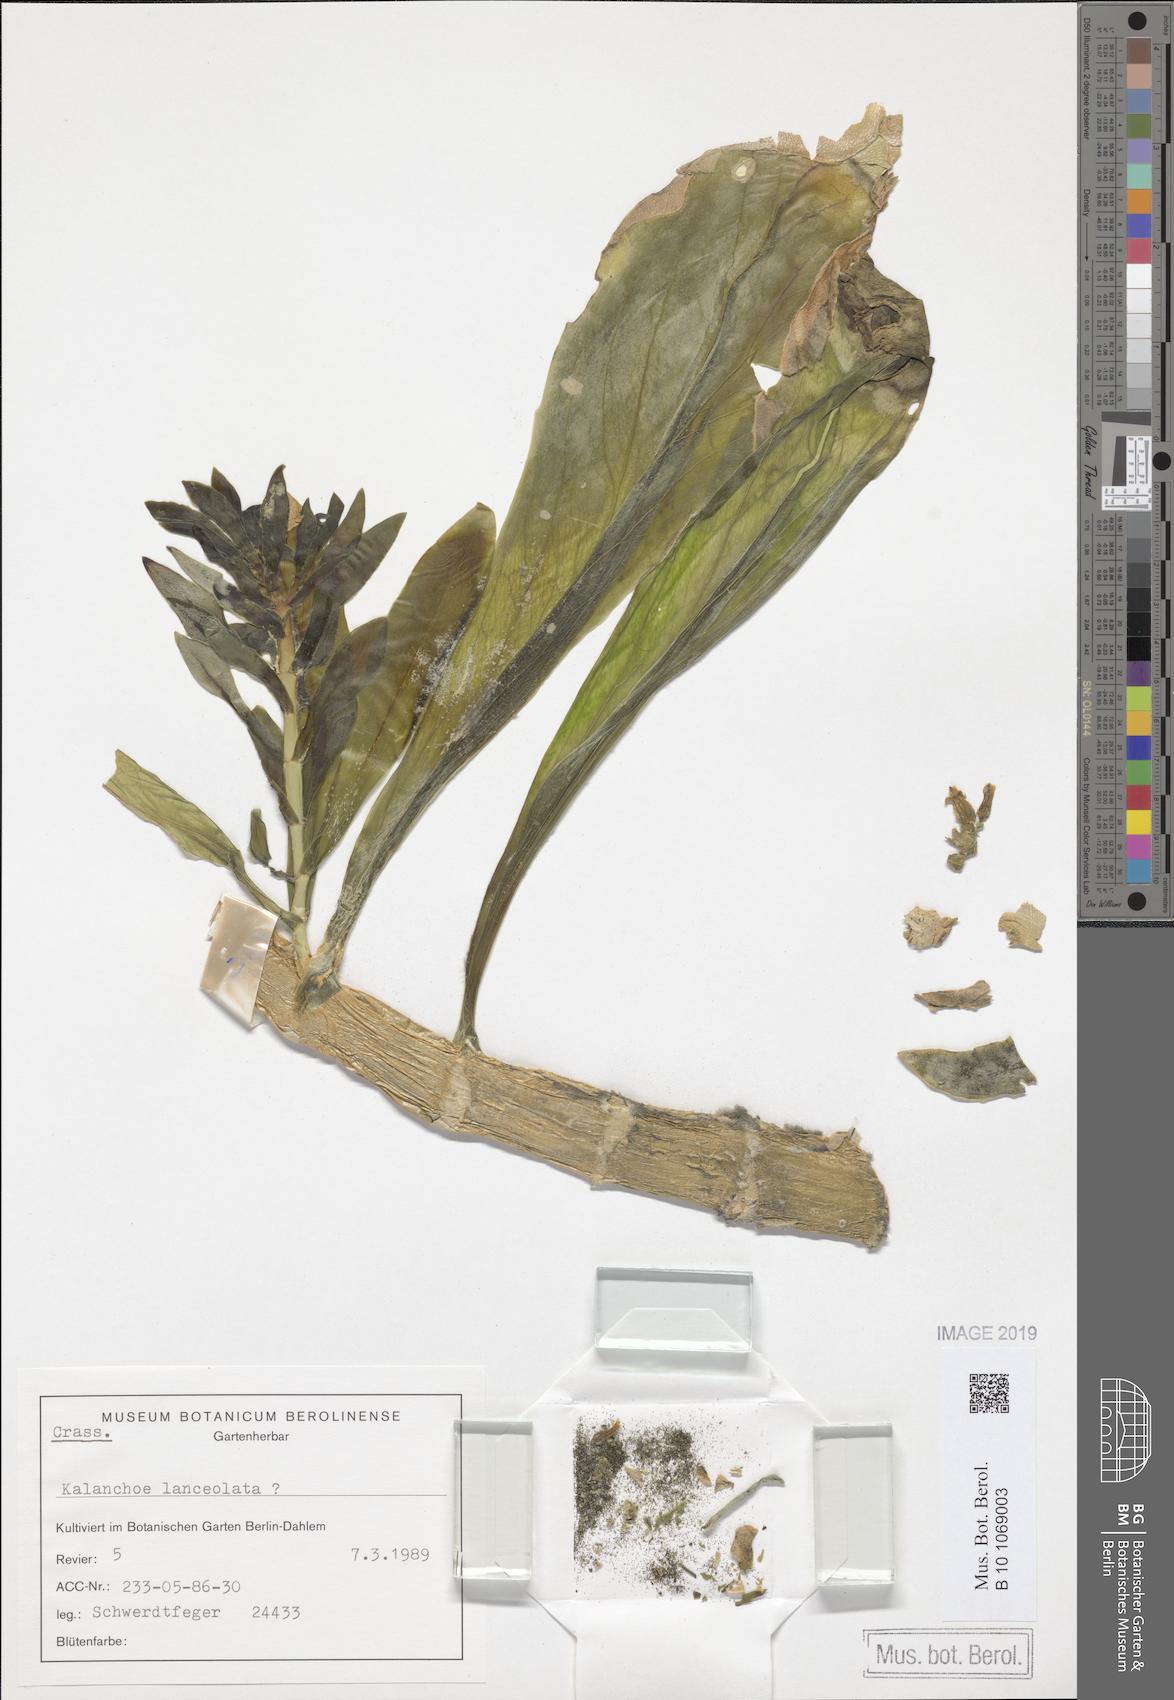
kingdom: Plantae
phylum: Tracheophyta
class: Magnoliopsida
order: Saxifragales
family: Crassulaceae
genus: Kalanchoe
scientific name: Kalanchoe yemensis
